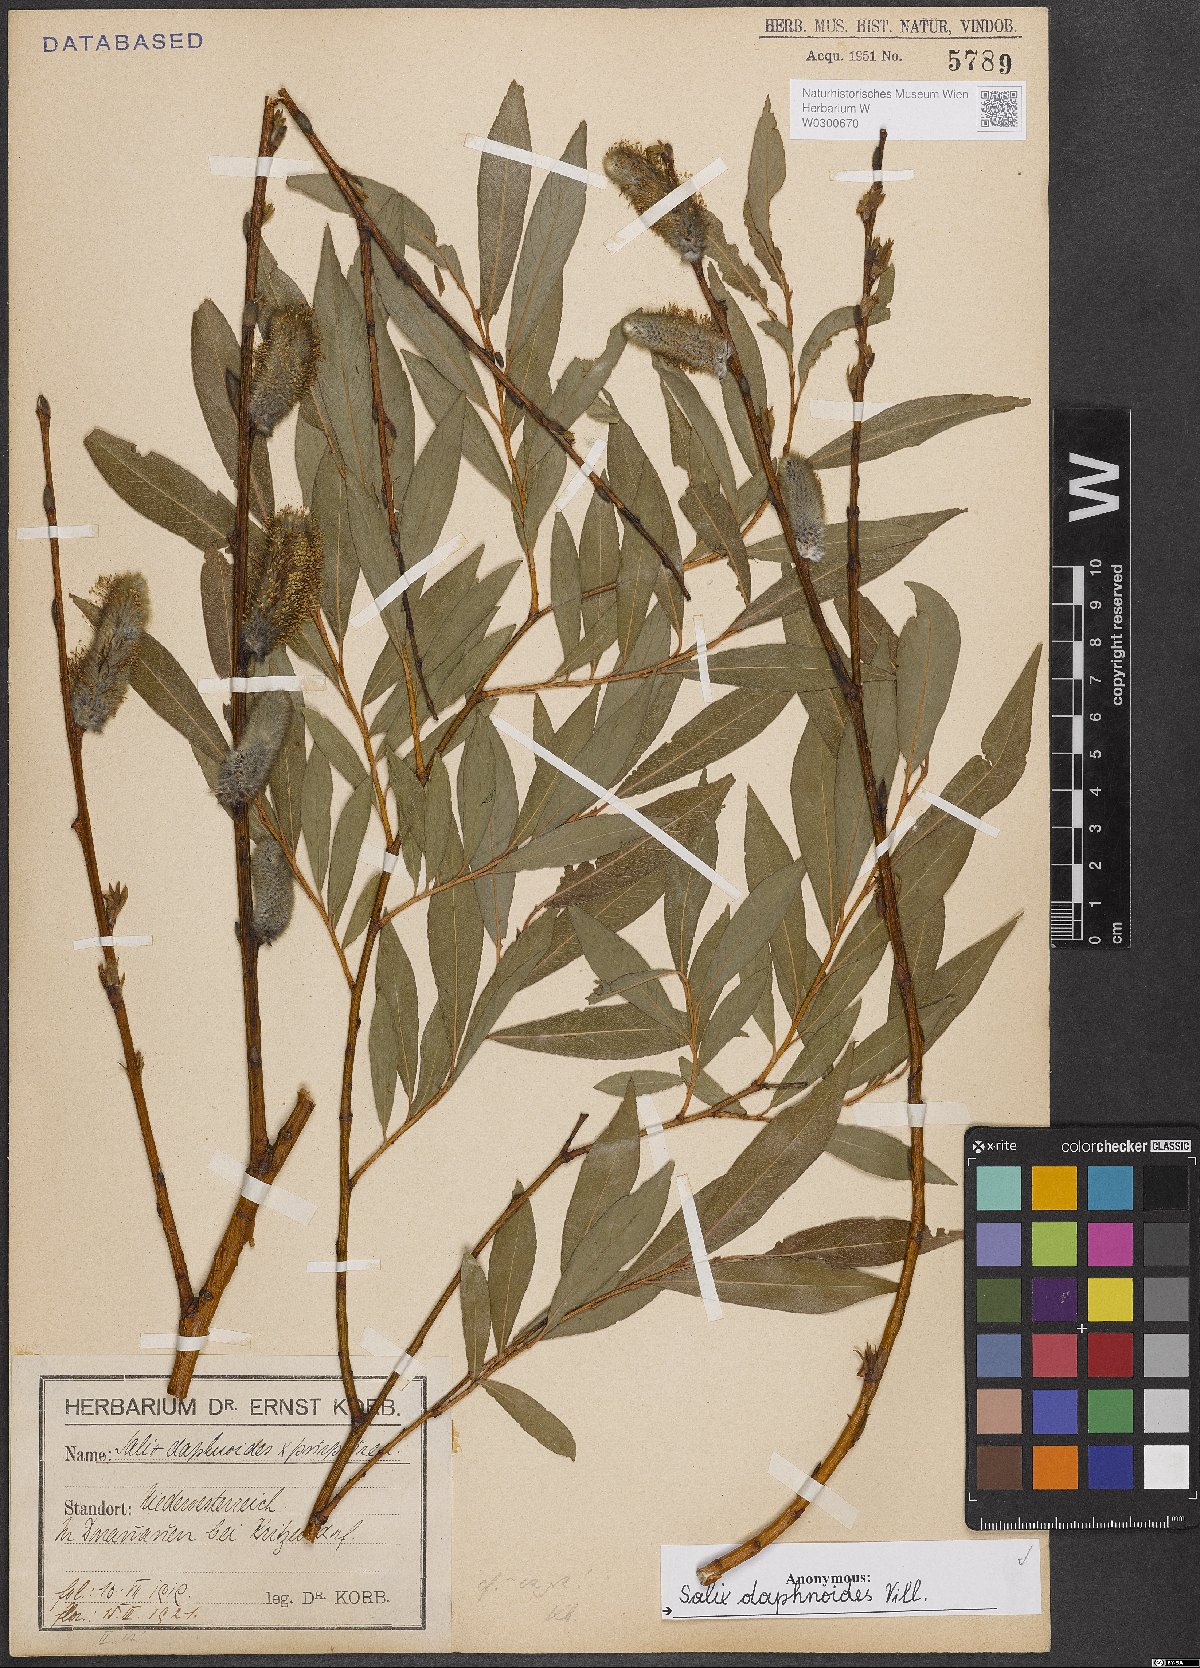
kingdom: Plantae
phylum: Tracheophyta
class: Magnoliopsida
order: Malpighiales
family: Salicaceae
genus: Salix
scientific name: Salix daphnoides
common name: European violet-willow
